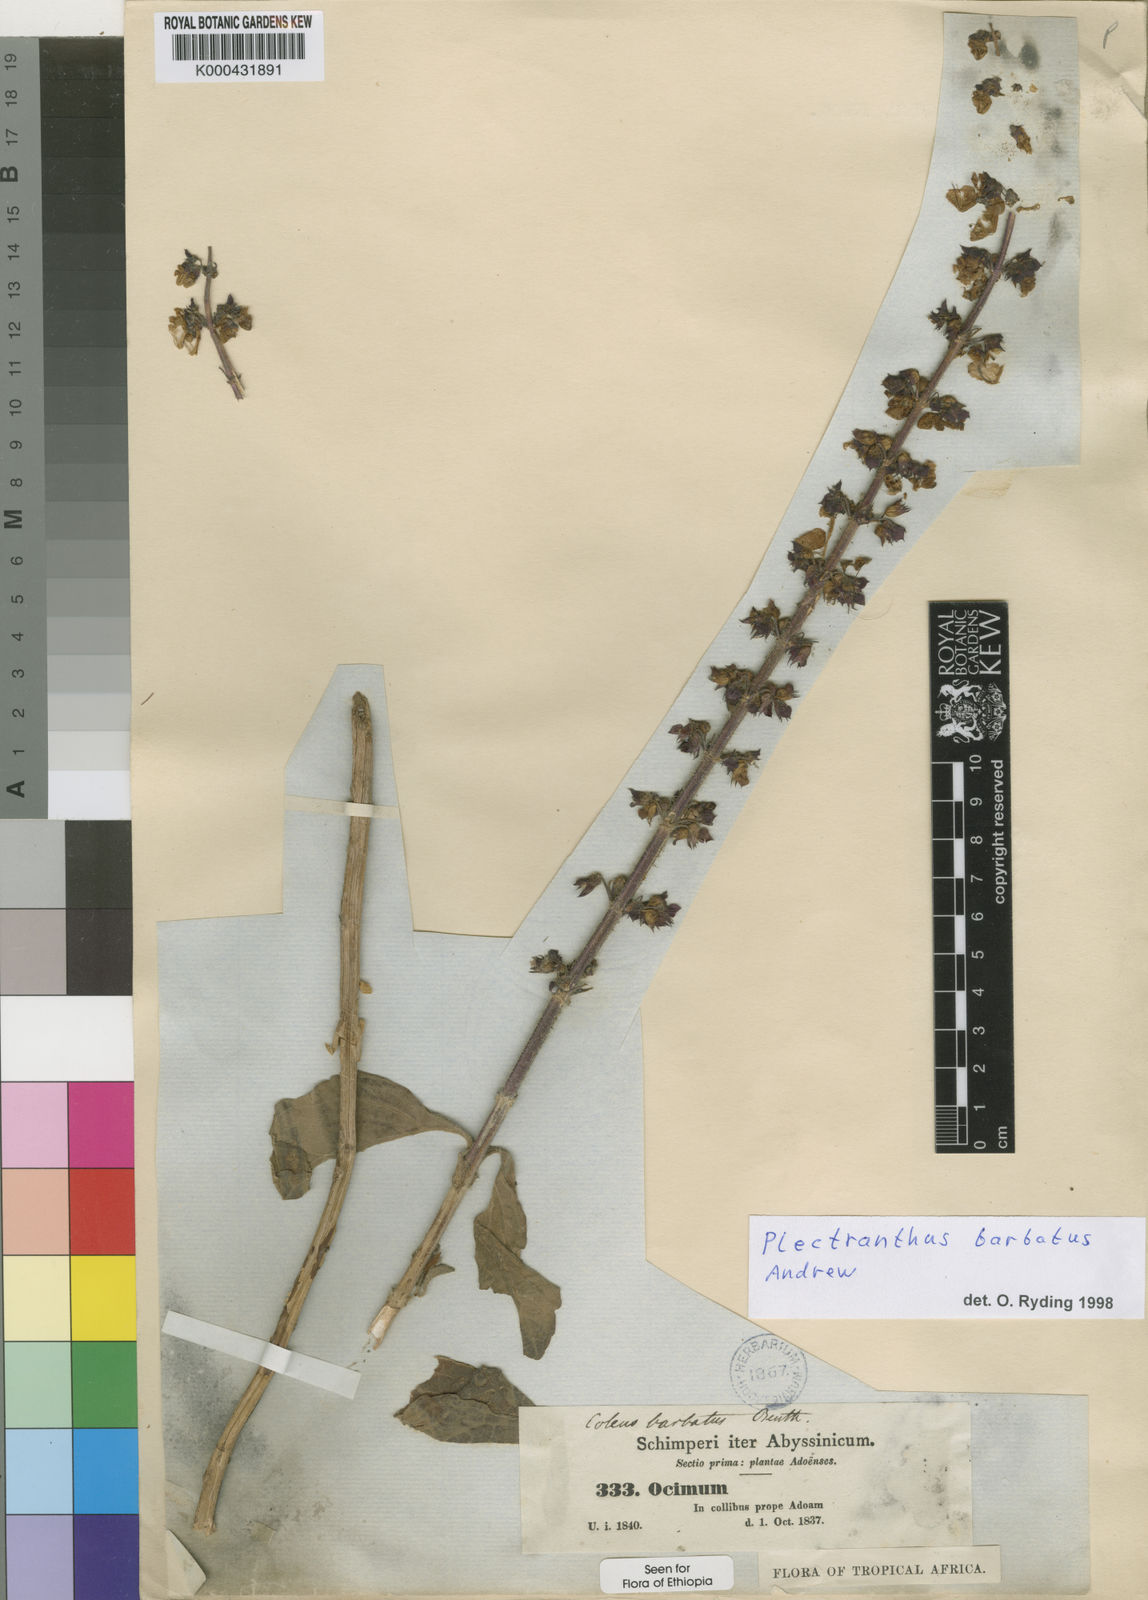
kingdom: Plantae
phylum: Tracheophyta
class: Magnoliopsida
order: Lamiales
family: Lamiaceae
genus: Coleus
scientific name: Coleus barbatus
